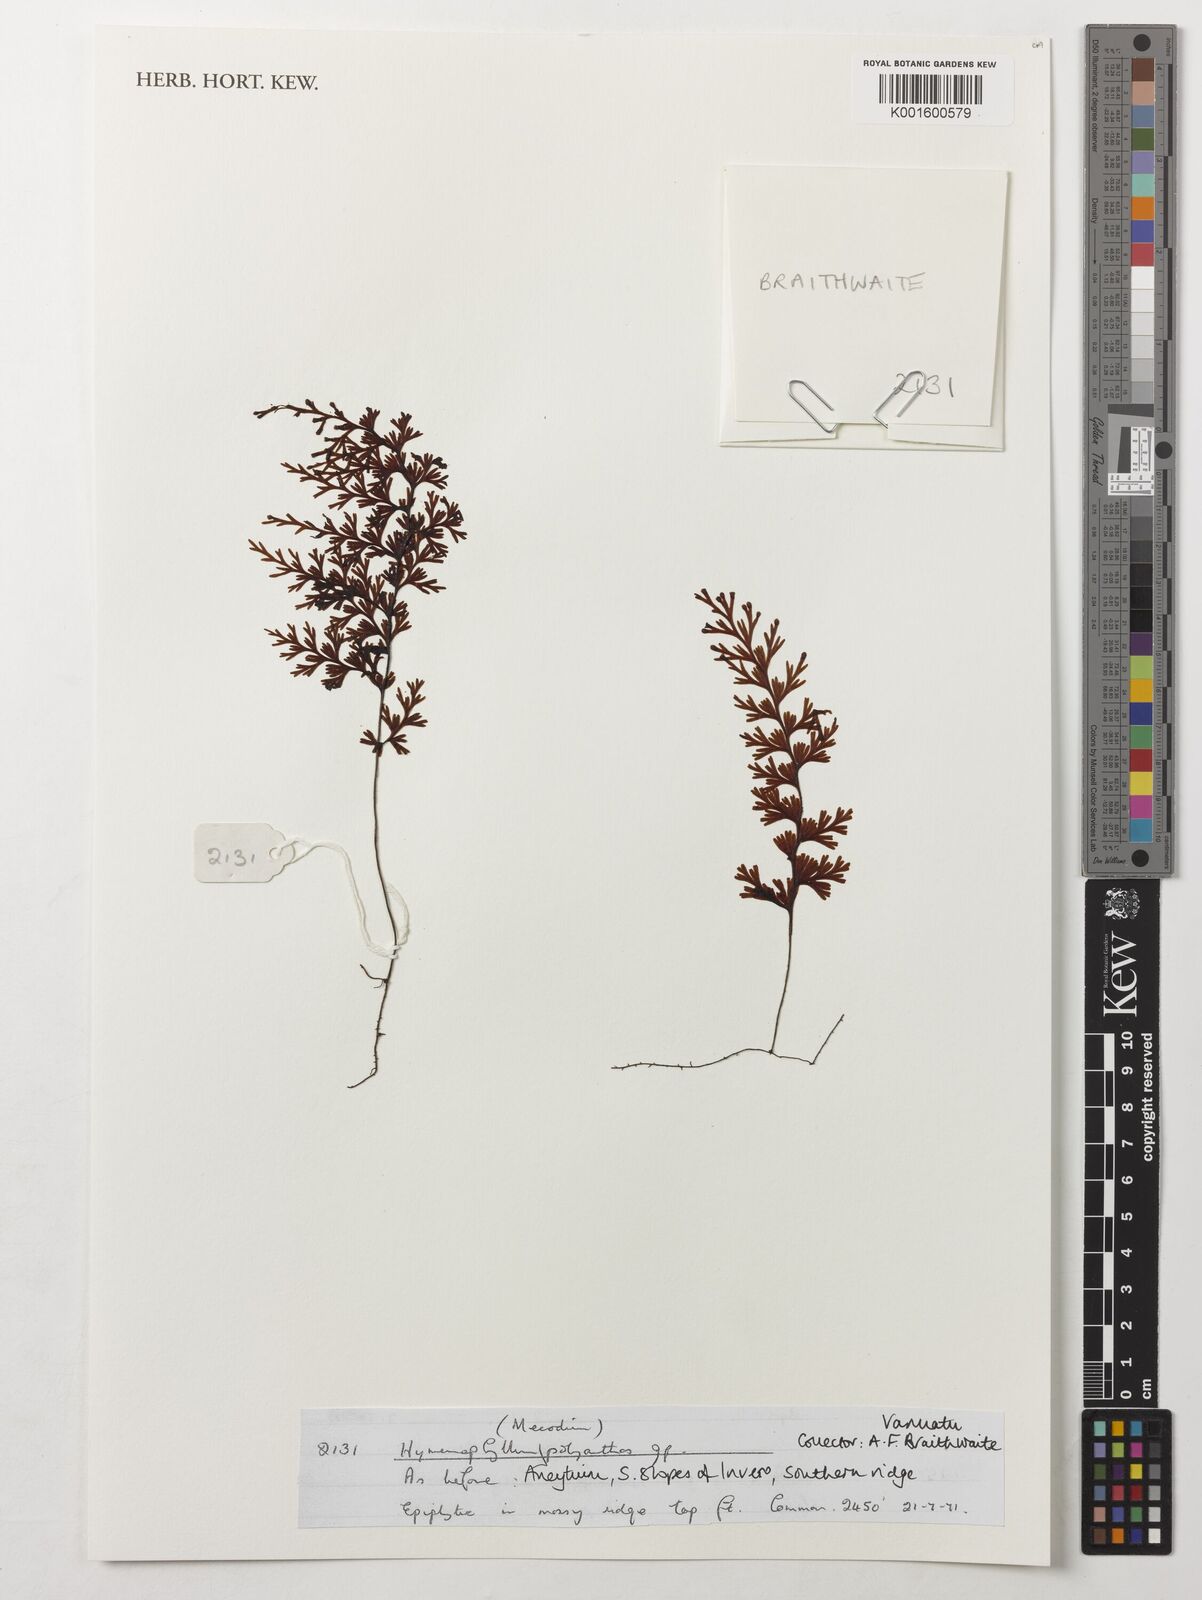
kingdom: Plantae
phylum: Tracheophyta
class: Polypodiopsida
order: Hymenophyllales
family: Hymenophyllaceae
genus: Hymenophyllum
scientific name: Hymenophyllum polyanthos
